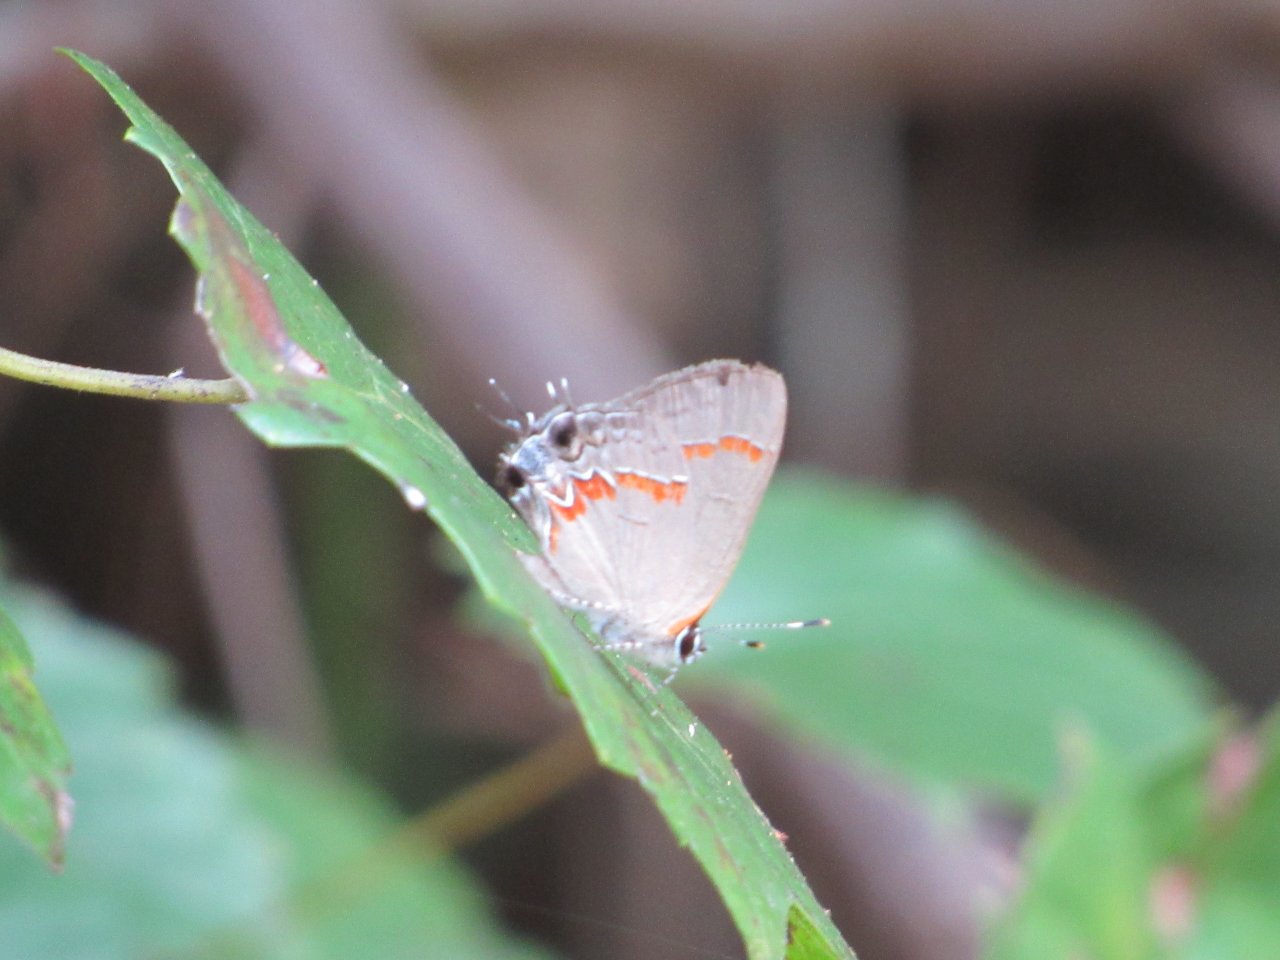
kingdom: Animalia
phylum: Arthropoda
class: Insecta
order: Lepidoptera
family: Lycaenidae
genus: Calycopis
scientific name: Calycopis cecrops
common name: Red-banded Hairstreak
